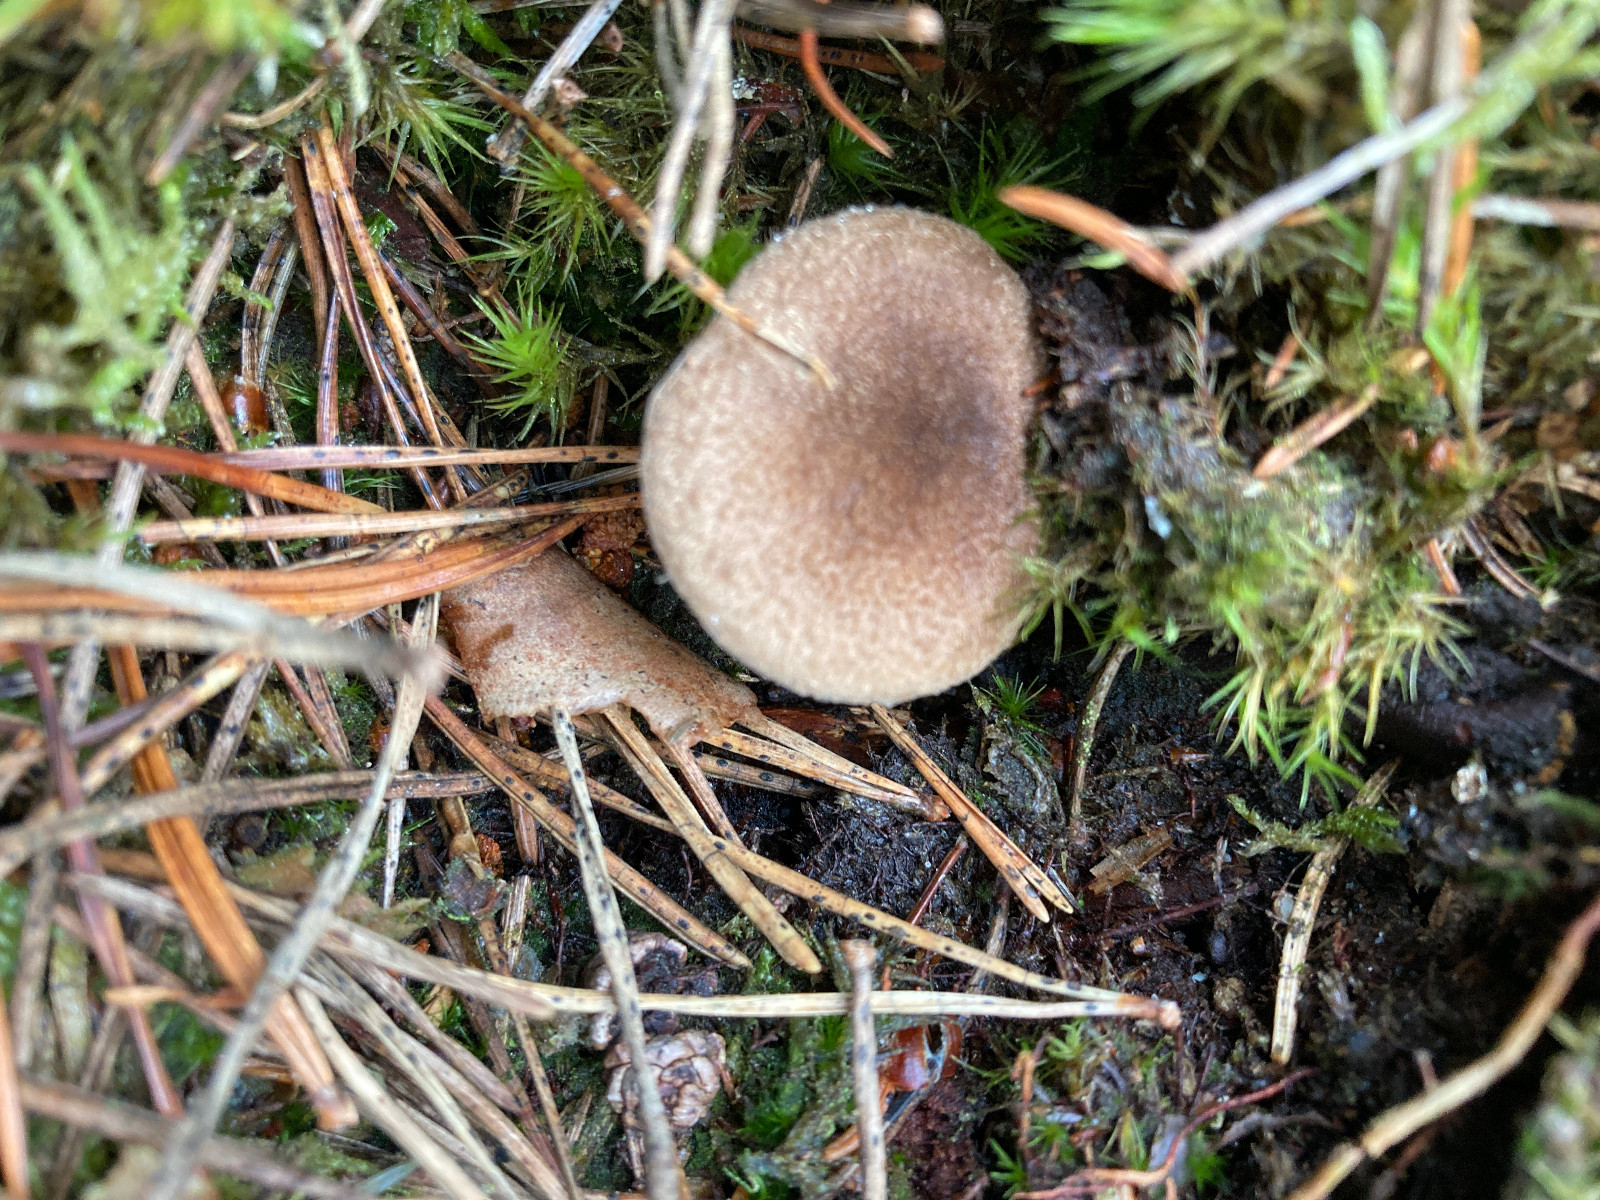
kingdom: Fungi
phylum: Basidiomycota
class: Agaricomycetes
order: Agaricales
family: Inocybaceae
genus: Inocybe
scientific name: Inocybe
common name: trævlhat
